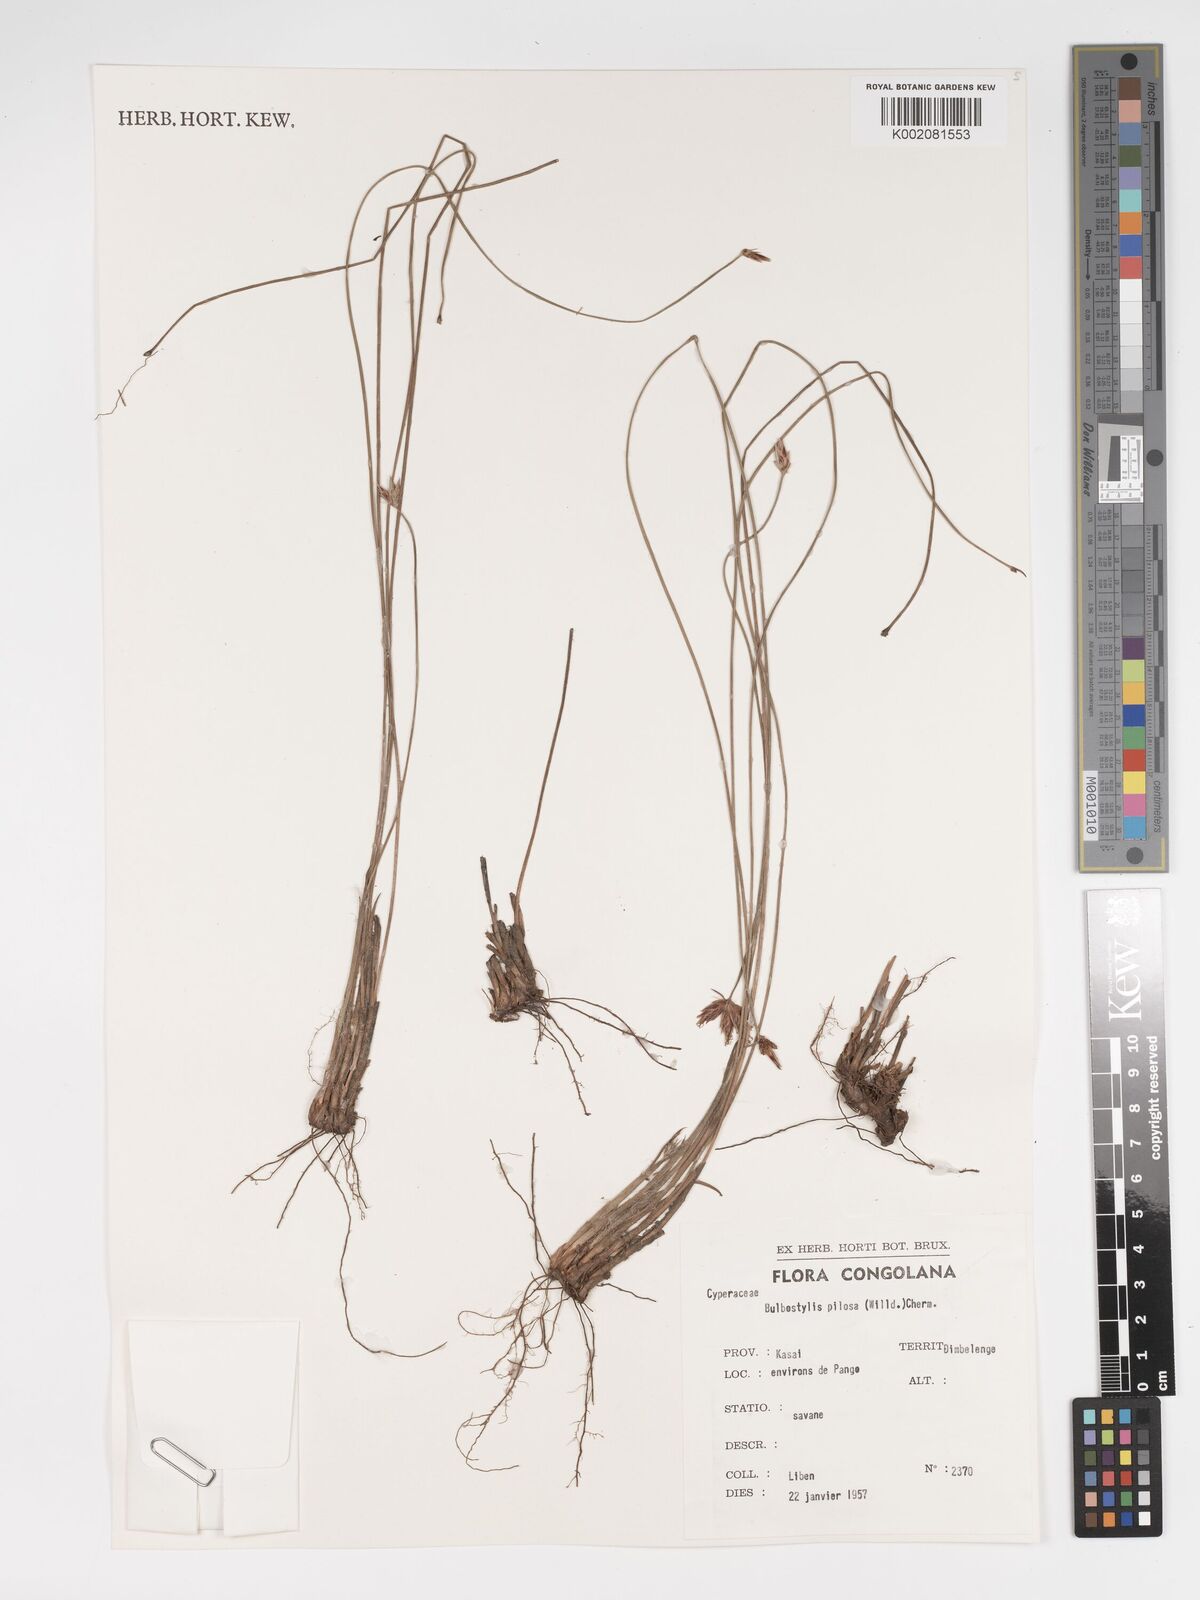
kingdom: Plantae
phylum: Tracheophyta
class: Liliopsida
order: Poales
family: Cyperaceae
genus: Bulbostylis
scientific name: Bulbostylis pilosa
